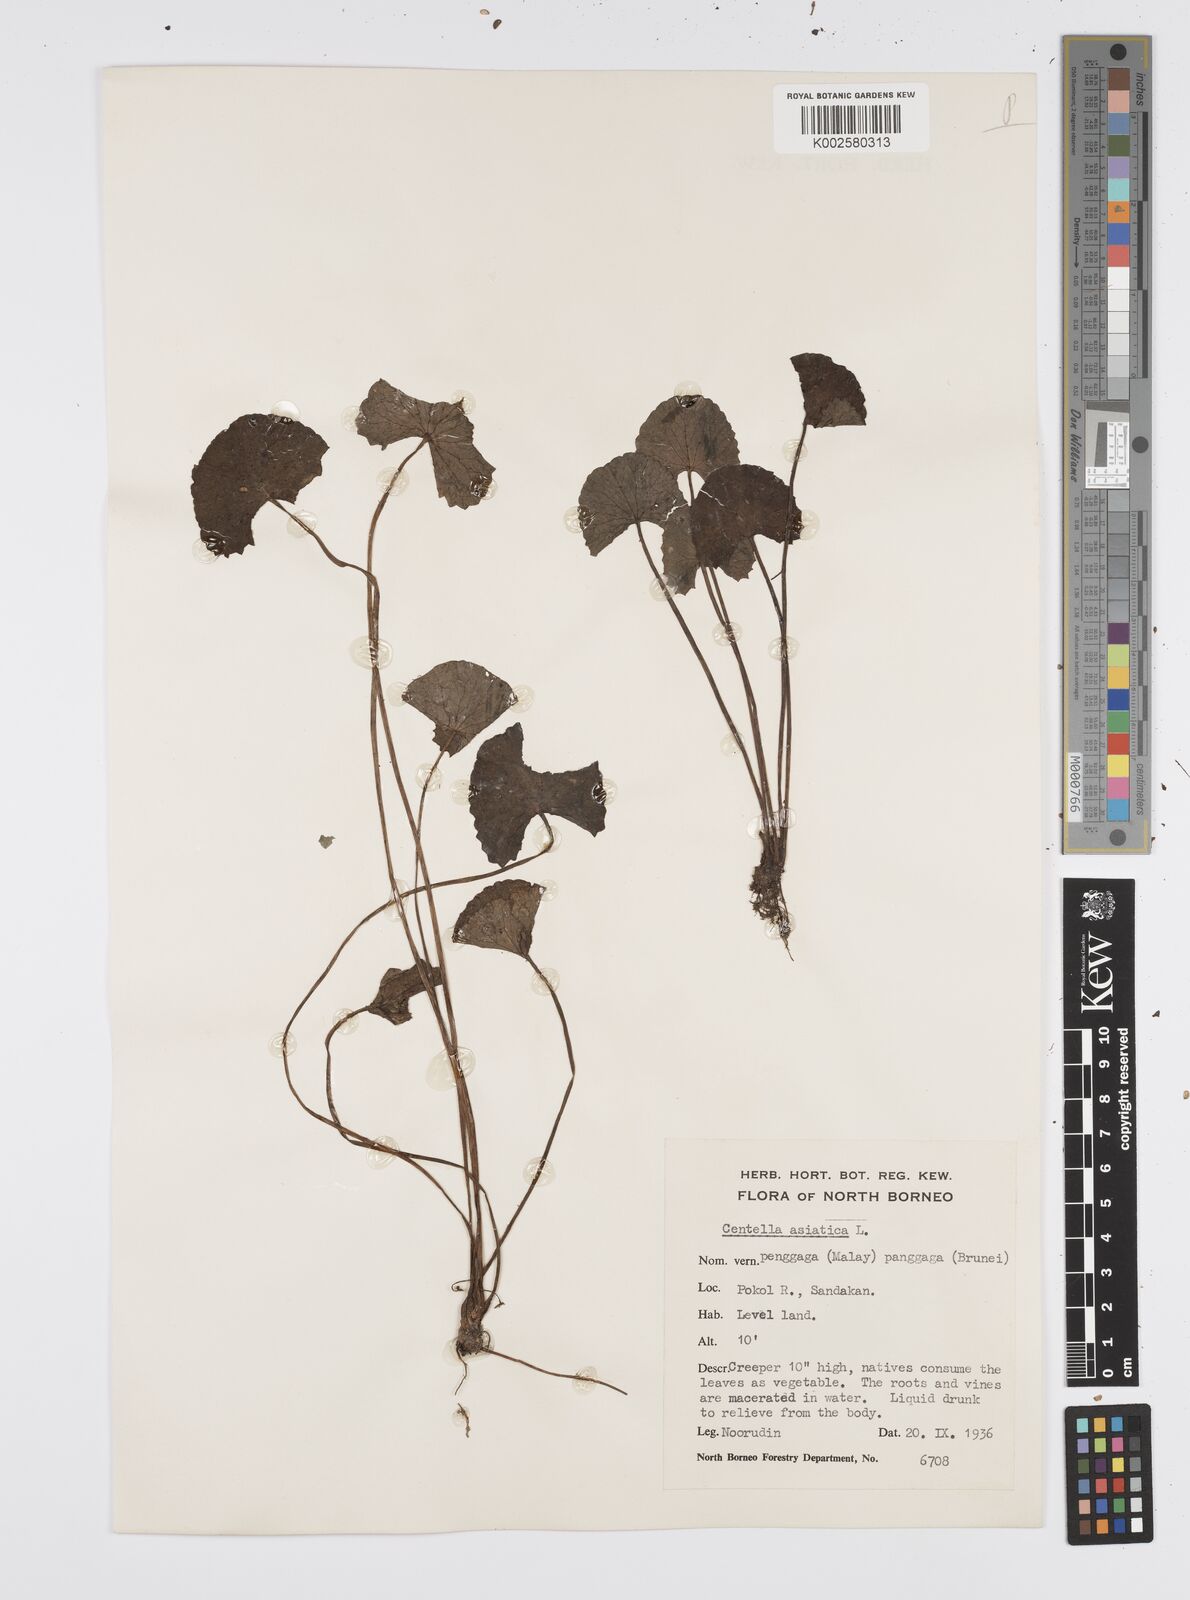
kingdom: Plantae
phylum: Tracheophyta
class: Magnoliopsida
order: Apiales
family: Apiaceae
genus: Centella
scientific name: Centella asiatica
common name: Spadeleaf
